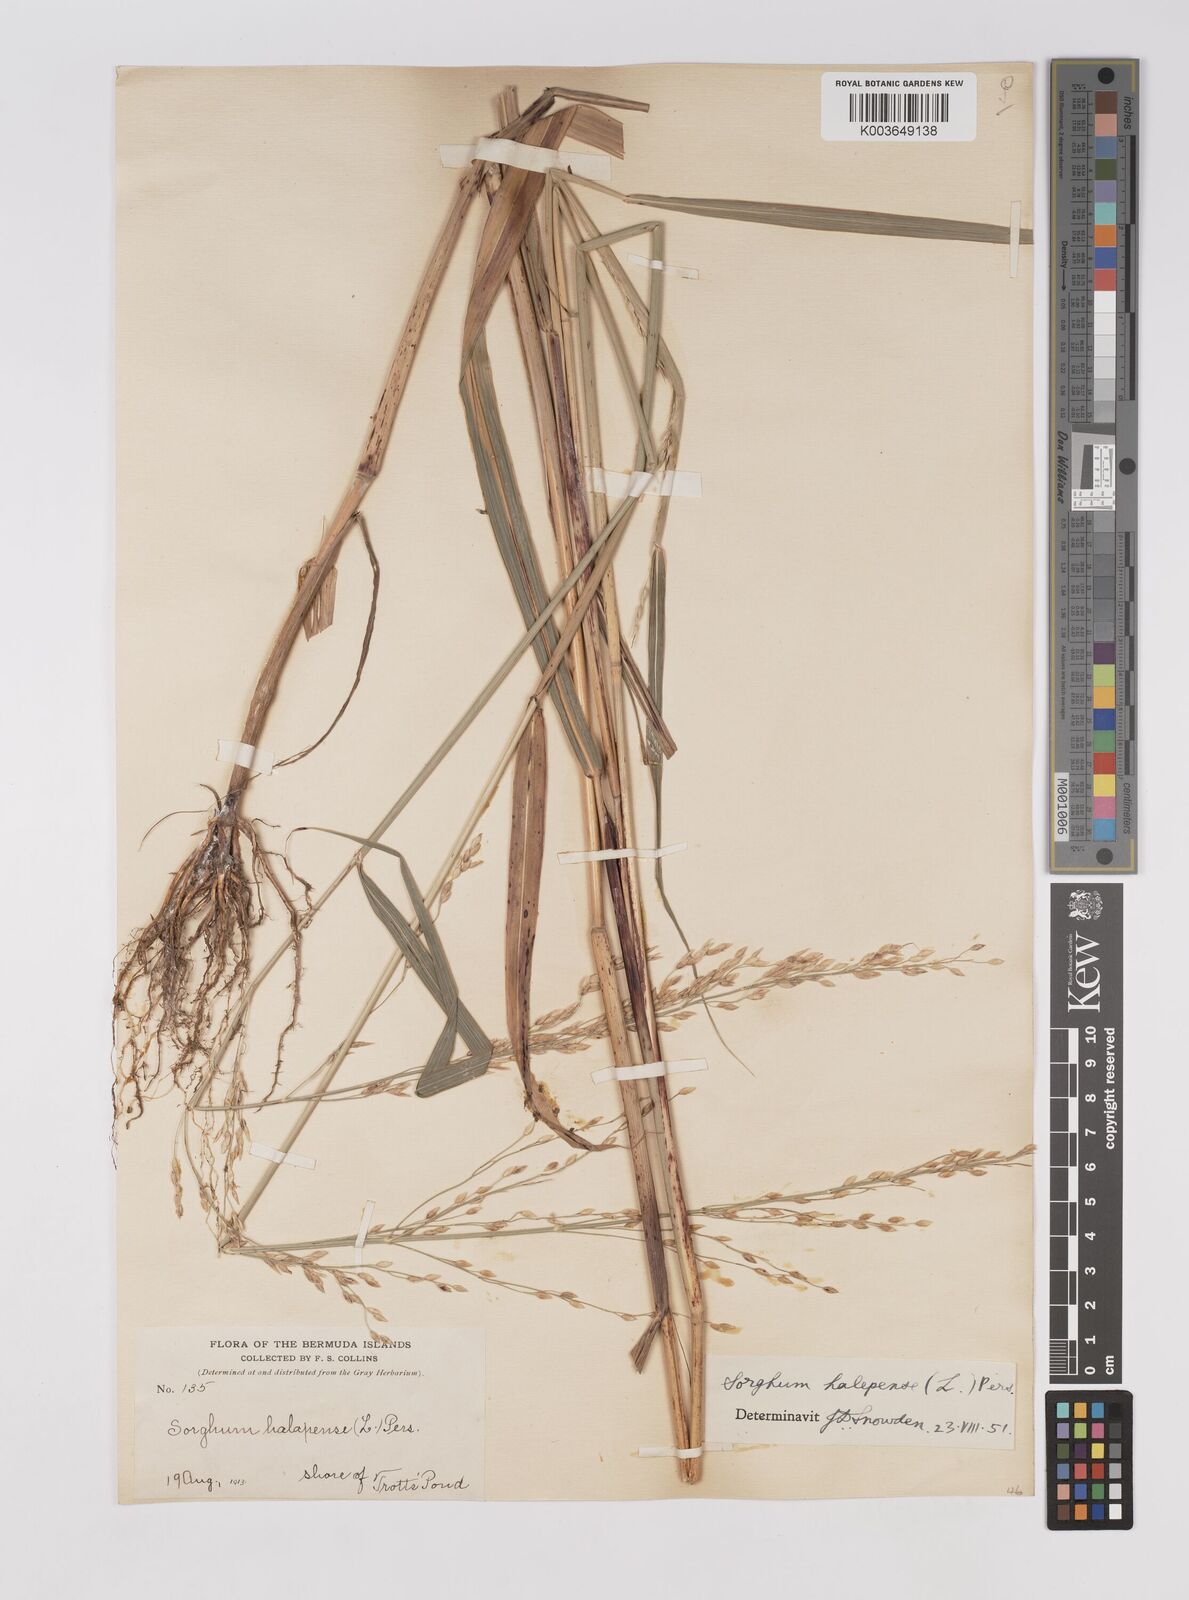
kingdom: Plantae
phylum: Tracheophyta
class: Liliopsida
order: Poales
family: Poaceae
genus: Sorghum
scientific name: Sorghum halepense
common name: Johnson-grass
